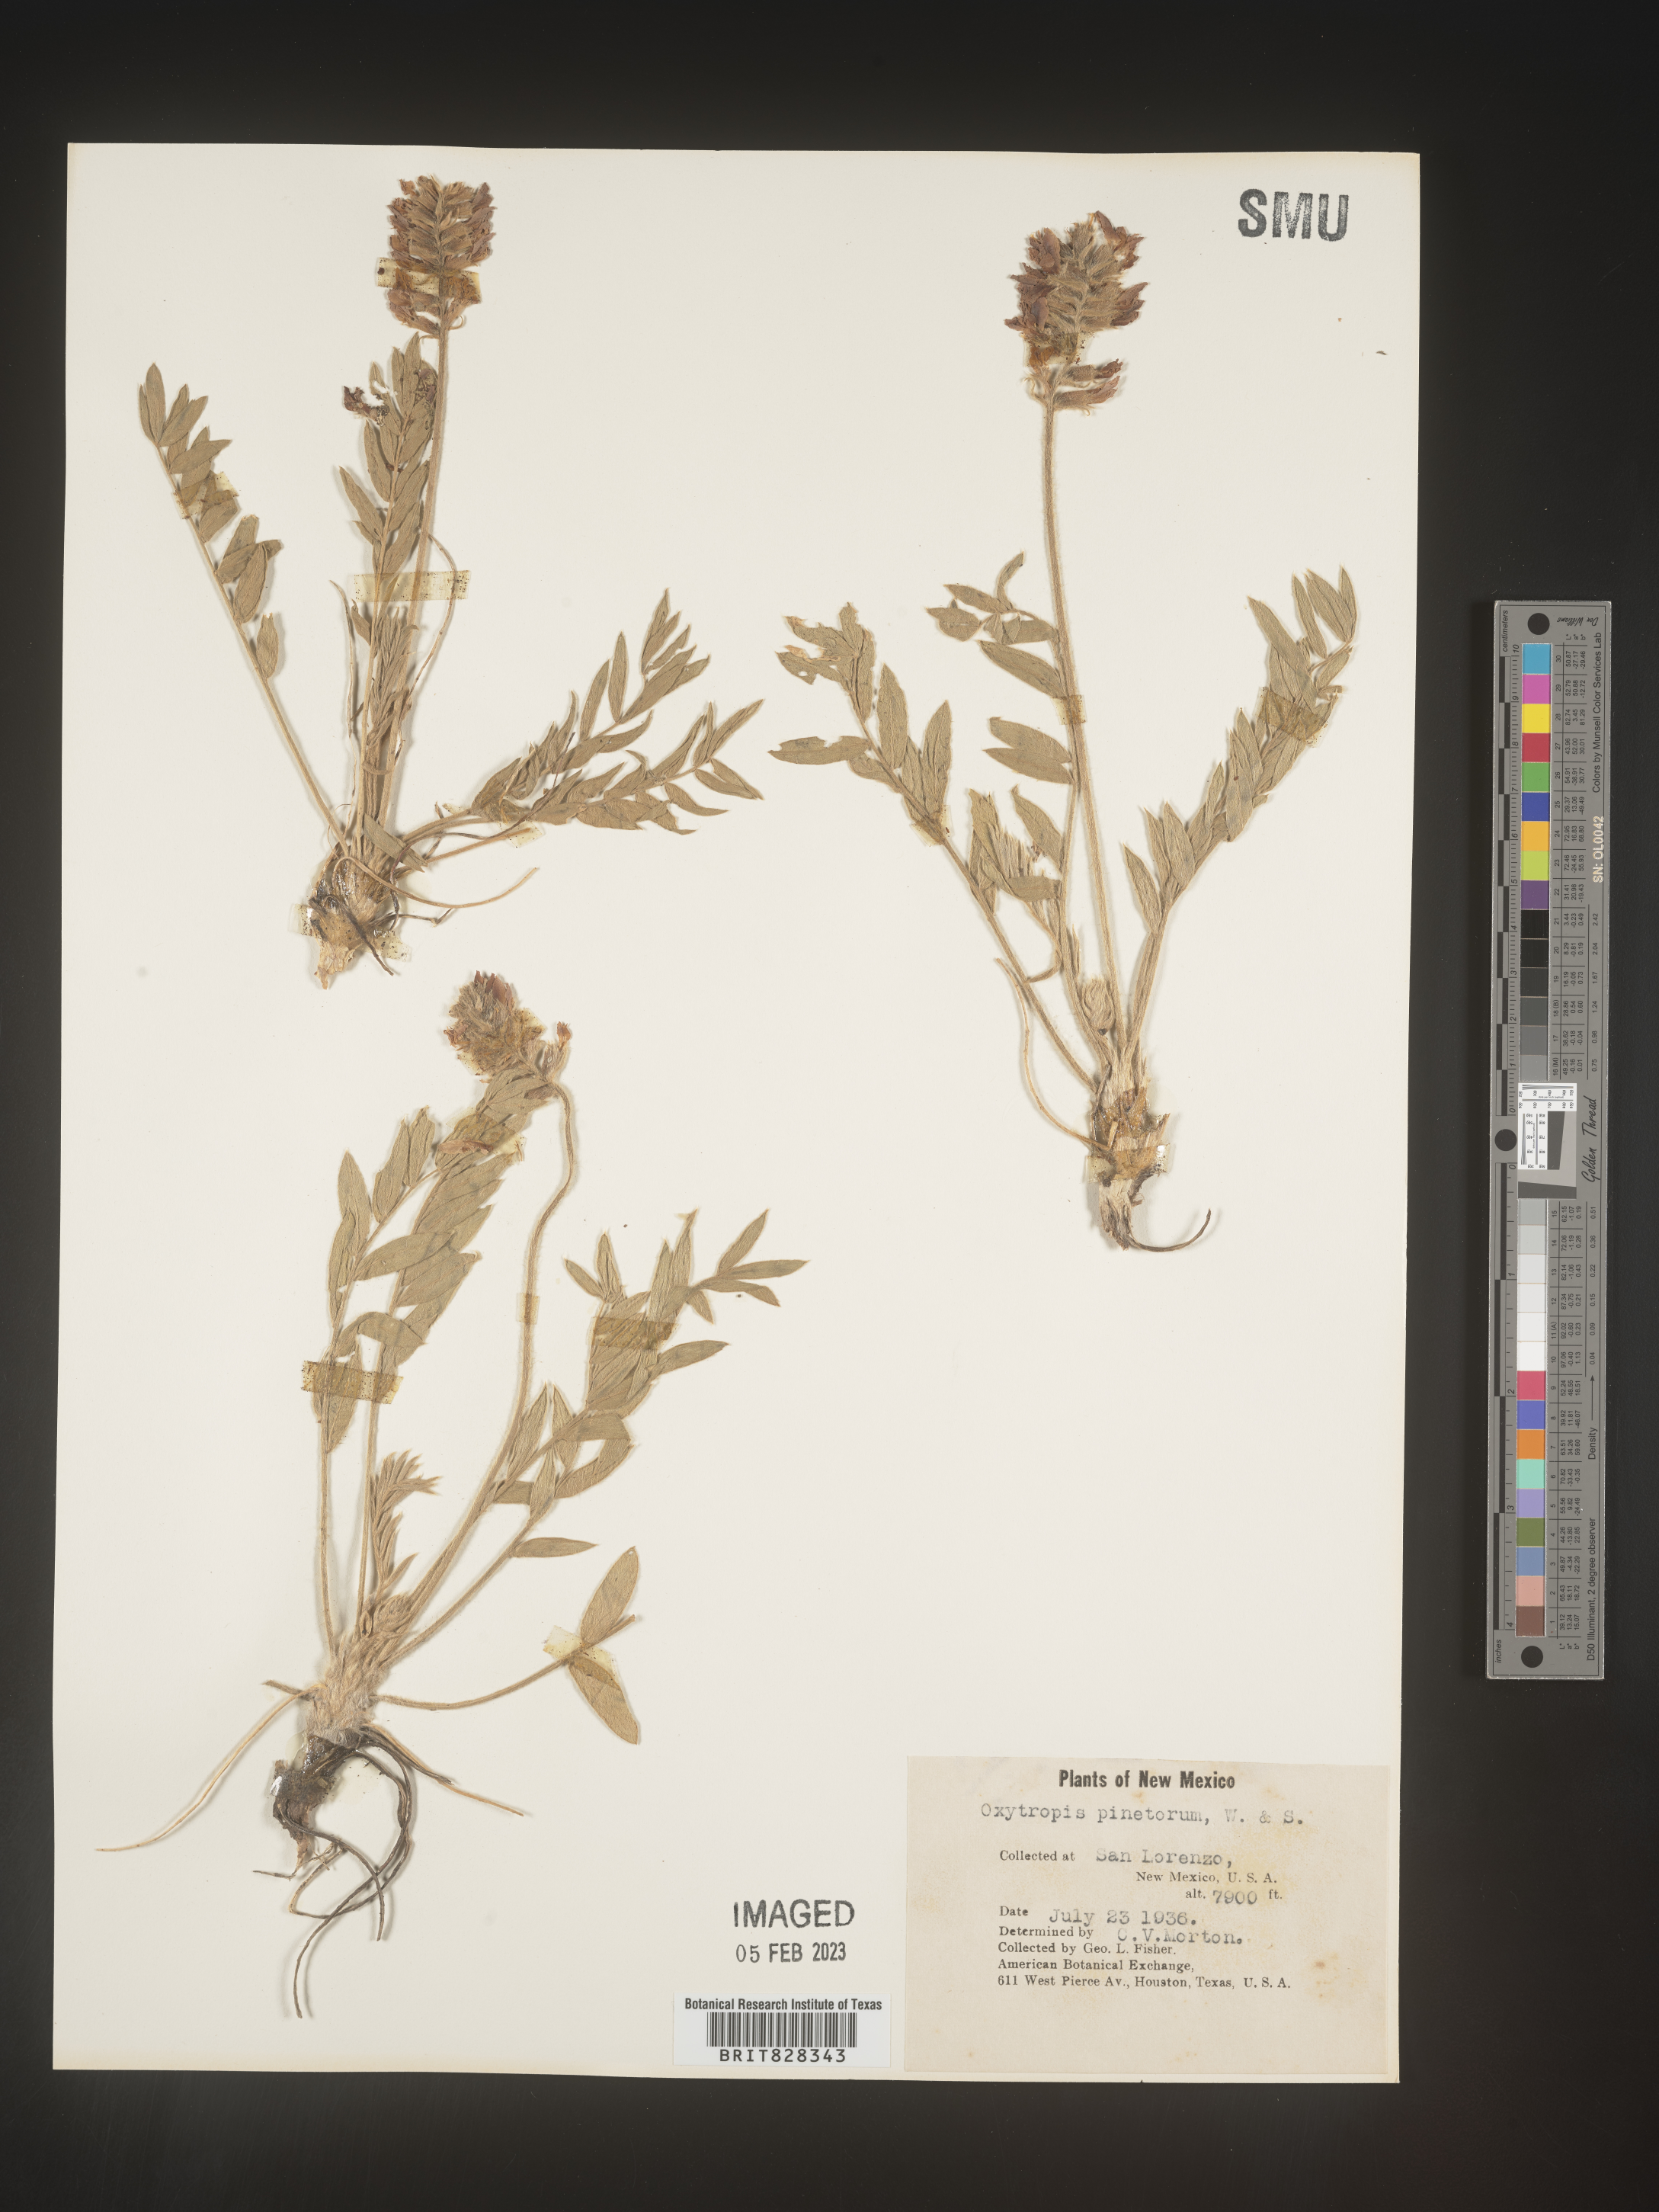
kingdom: Plantae
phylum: Tracheophyta
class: Magnoliopsida
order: Fabales
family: Fabaceae
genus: Oxytropis
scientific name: Oxytropis
